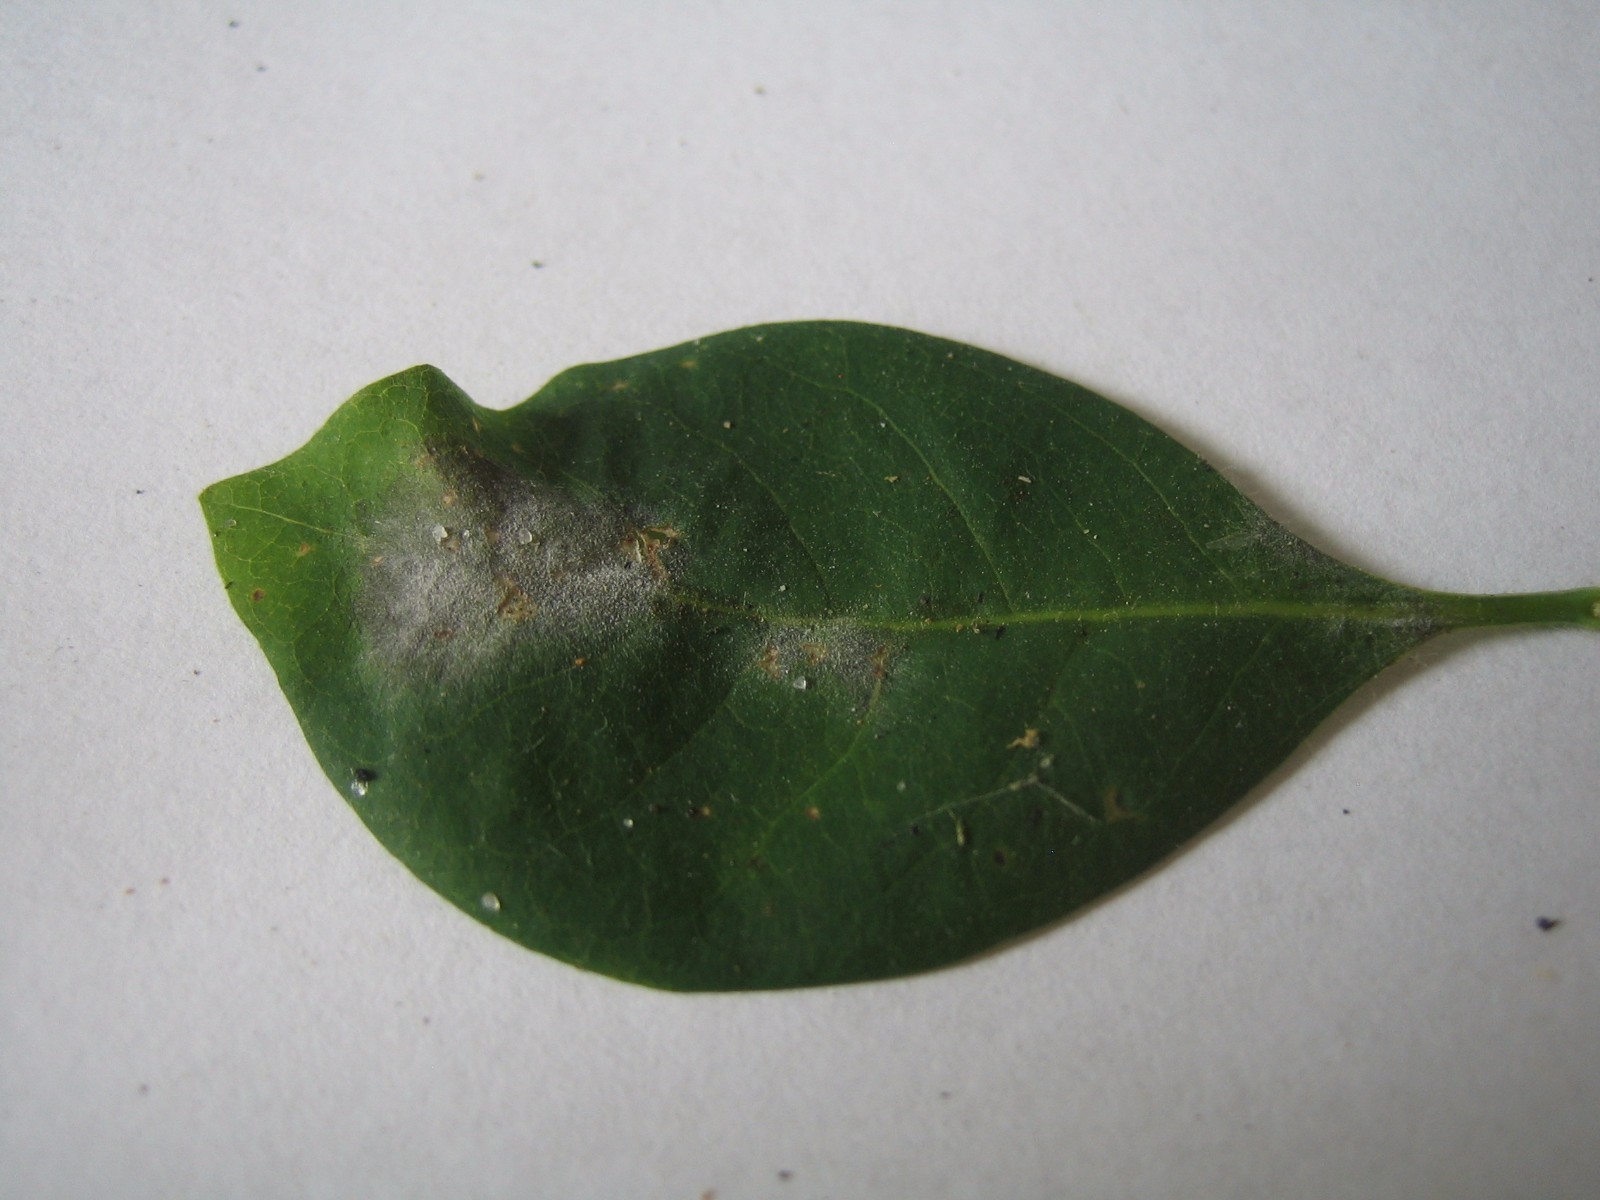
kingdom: Fungi
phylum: Ascomycota
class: Leotiomycetes
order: Helotiales
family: Erysiphaceae
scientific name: Erysiphaceae
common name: meldugfamilien
